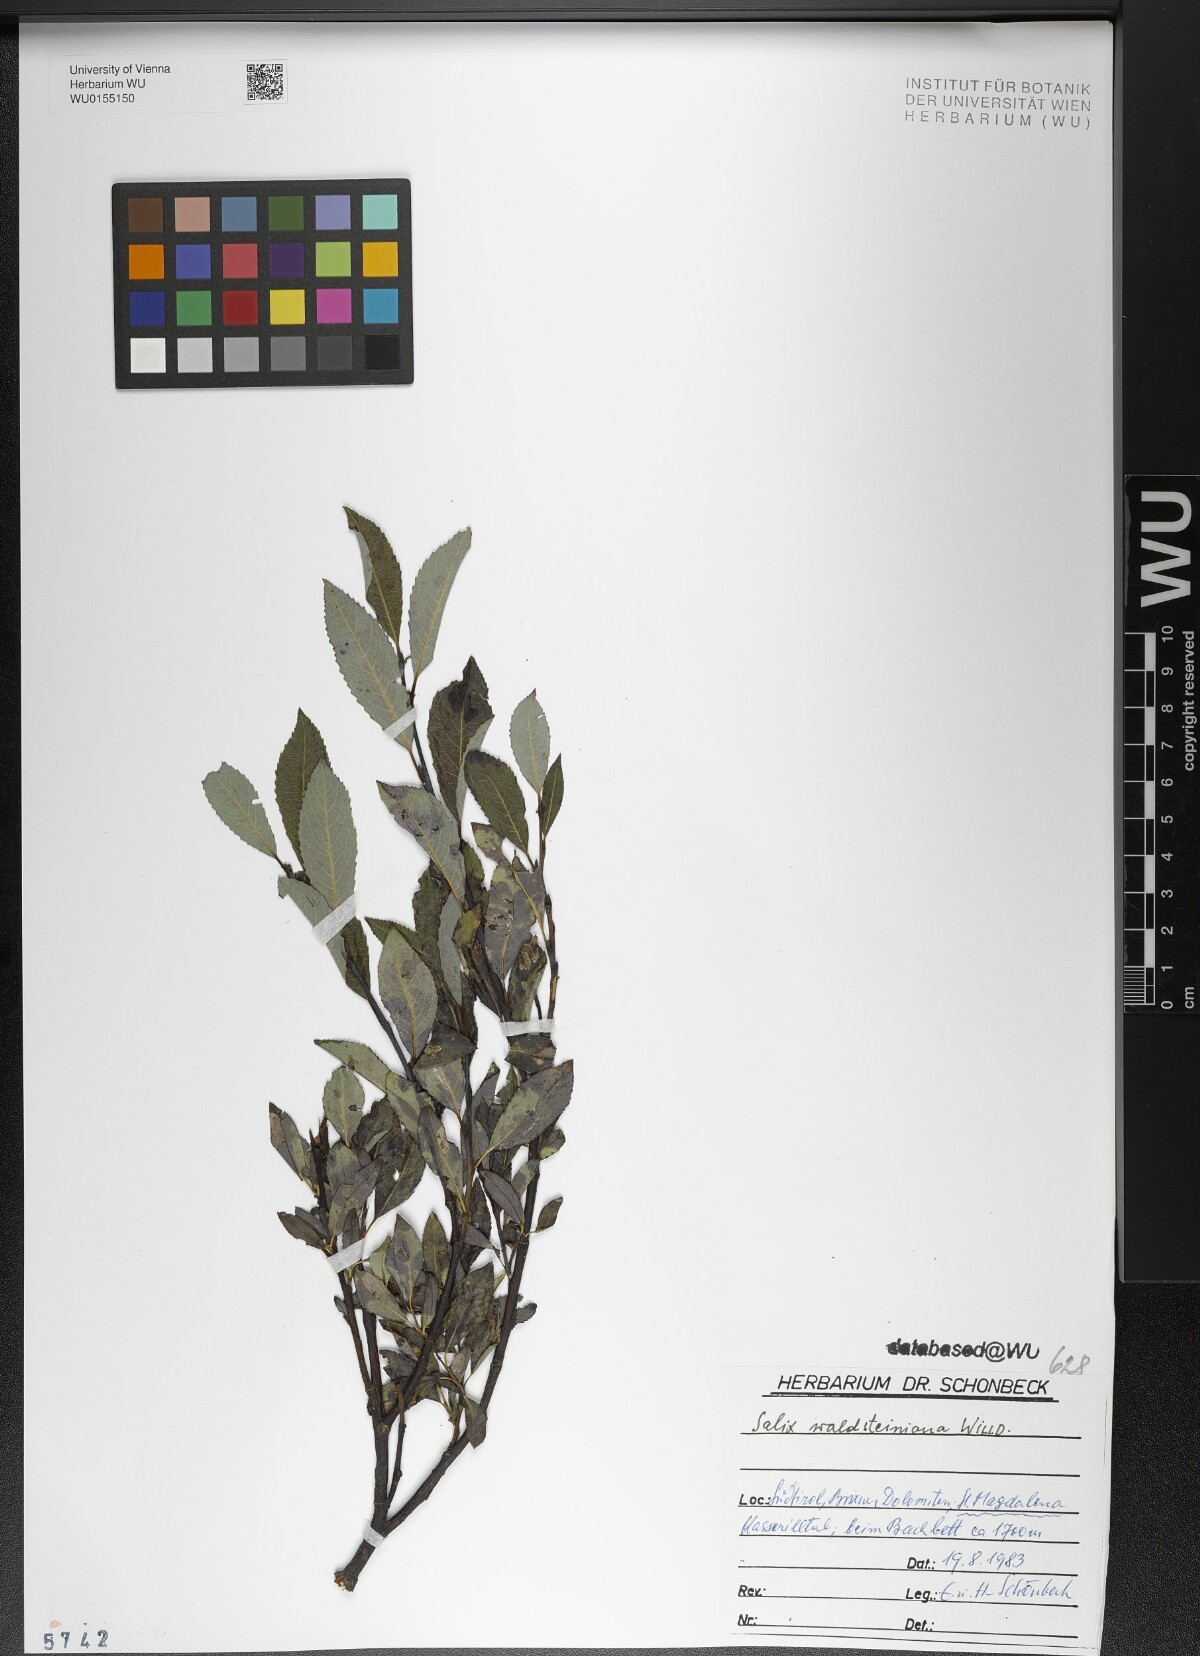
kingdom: Plantae
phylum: Tracheophyta
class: Magnoliopsida
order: Malpighiales
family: Salicaceae
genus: Salix
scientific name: Salix waldsteiniana
